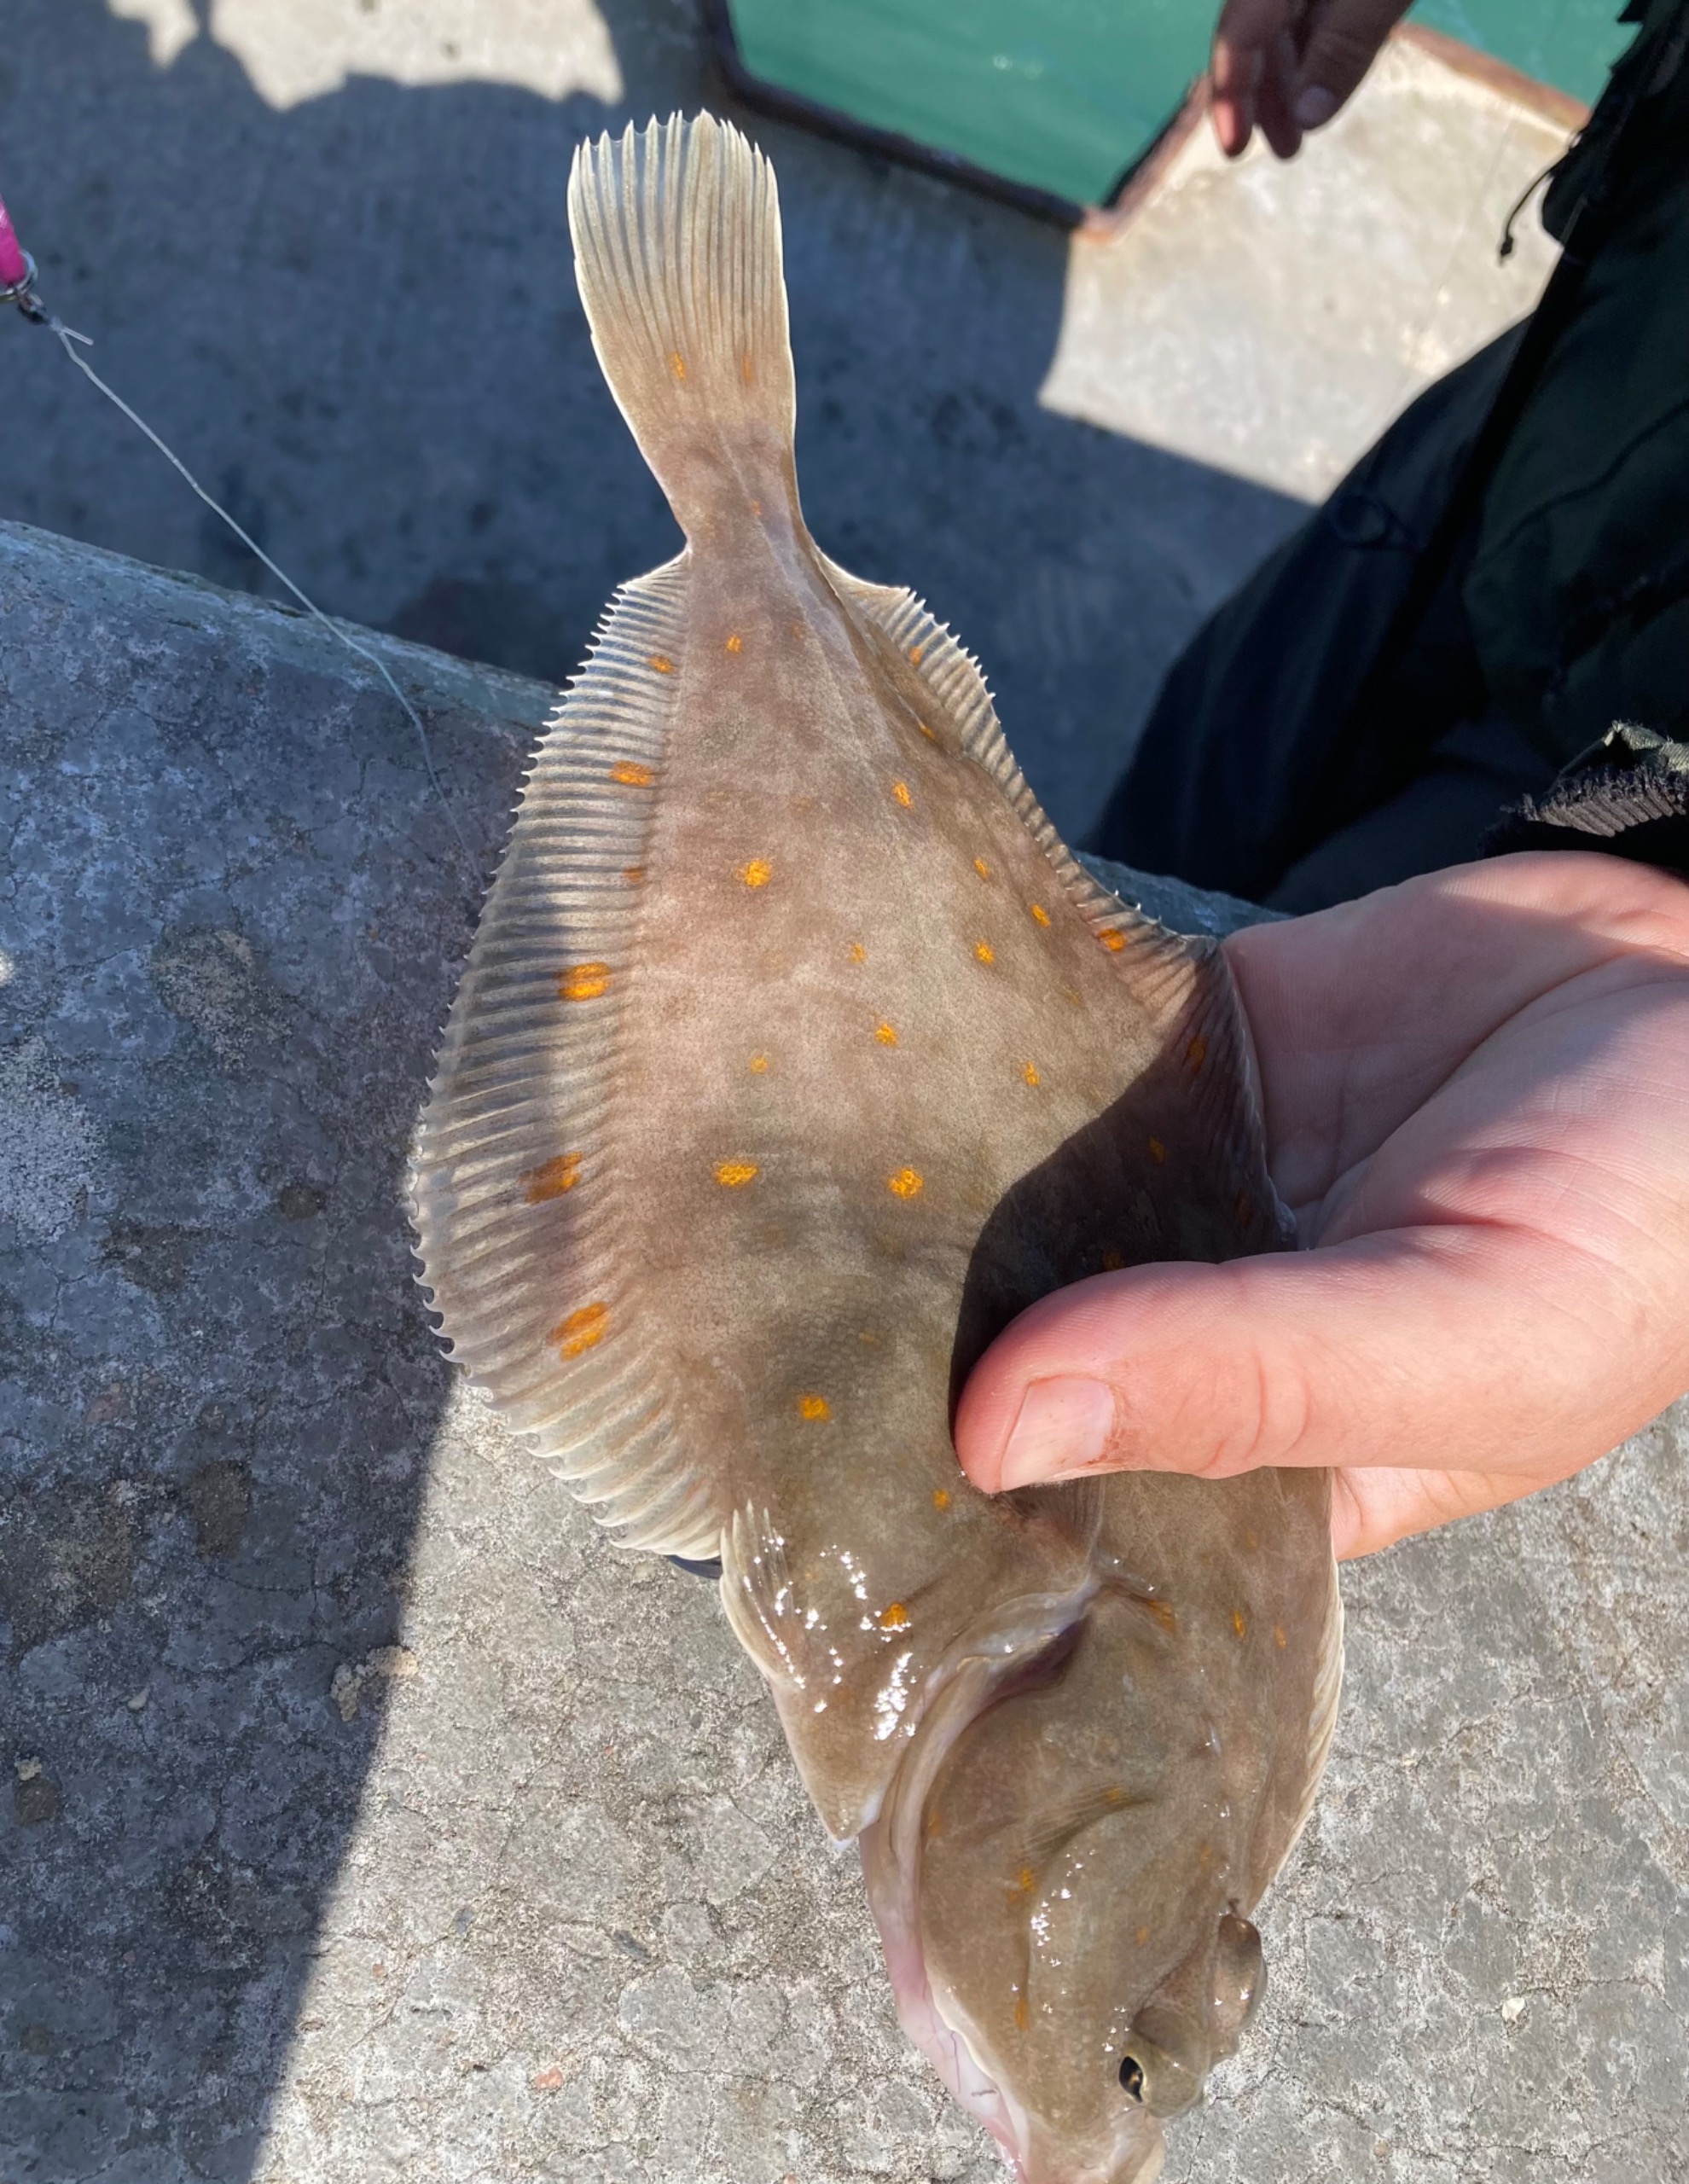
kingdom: Animalia
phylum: Chordata
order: Pleuronectiformes
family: Pleuronectidae
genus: Pleuronectes
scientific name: Pleuronectes platessa
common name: Rødspætte
